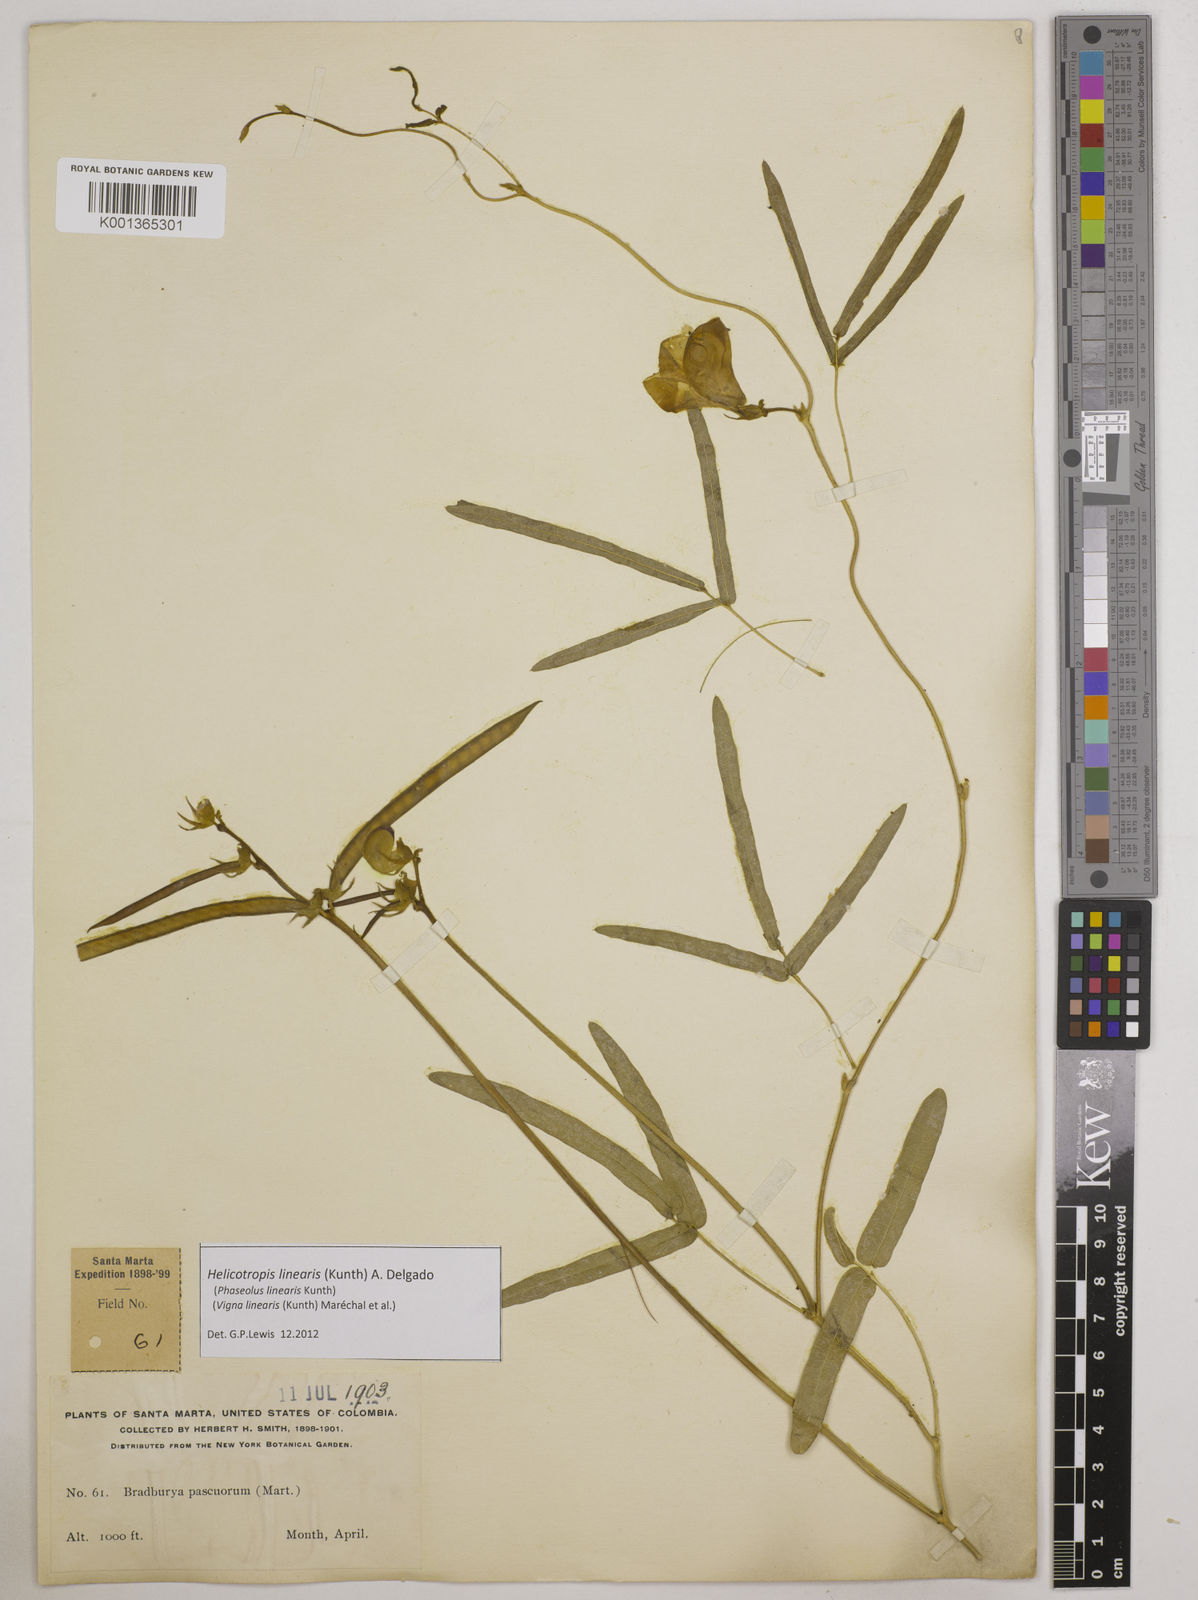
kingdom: Plantae
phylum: Tracheophyta
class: Magnoliopsida
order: Fabales
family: Fabaceae
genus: Helicotropis
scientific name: Helicotropis linearis
